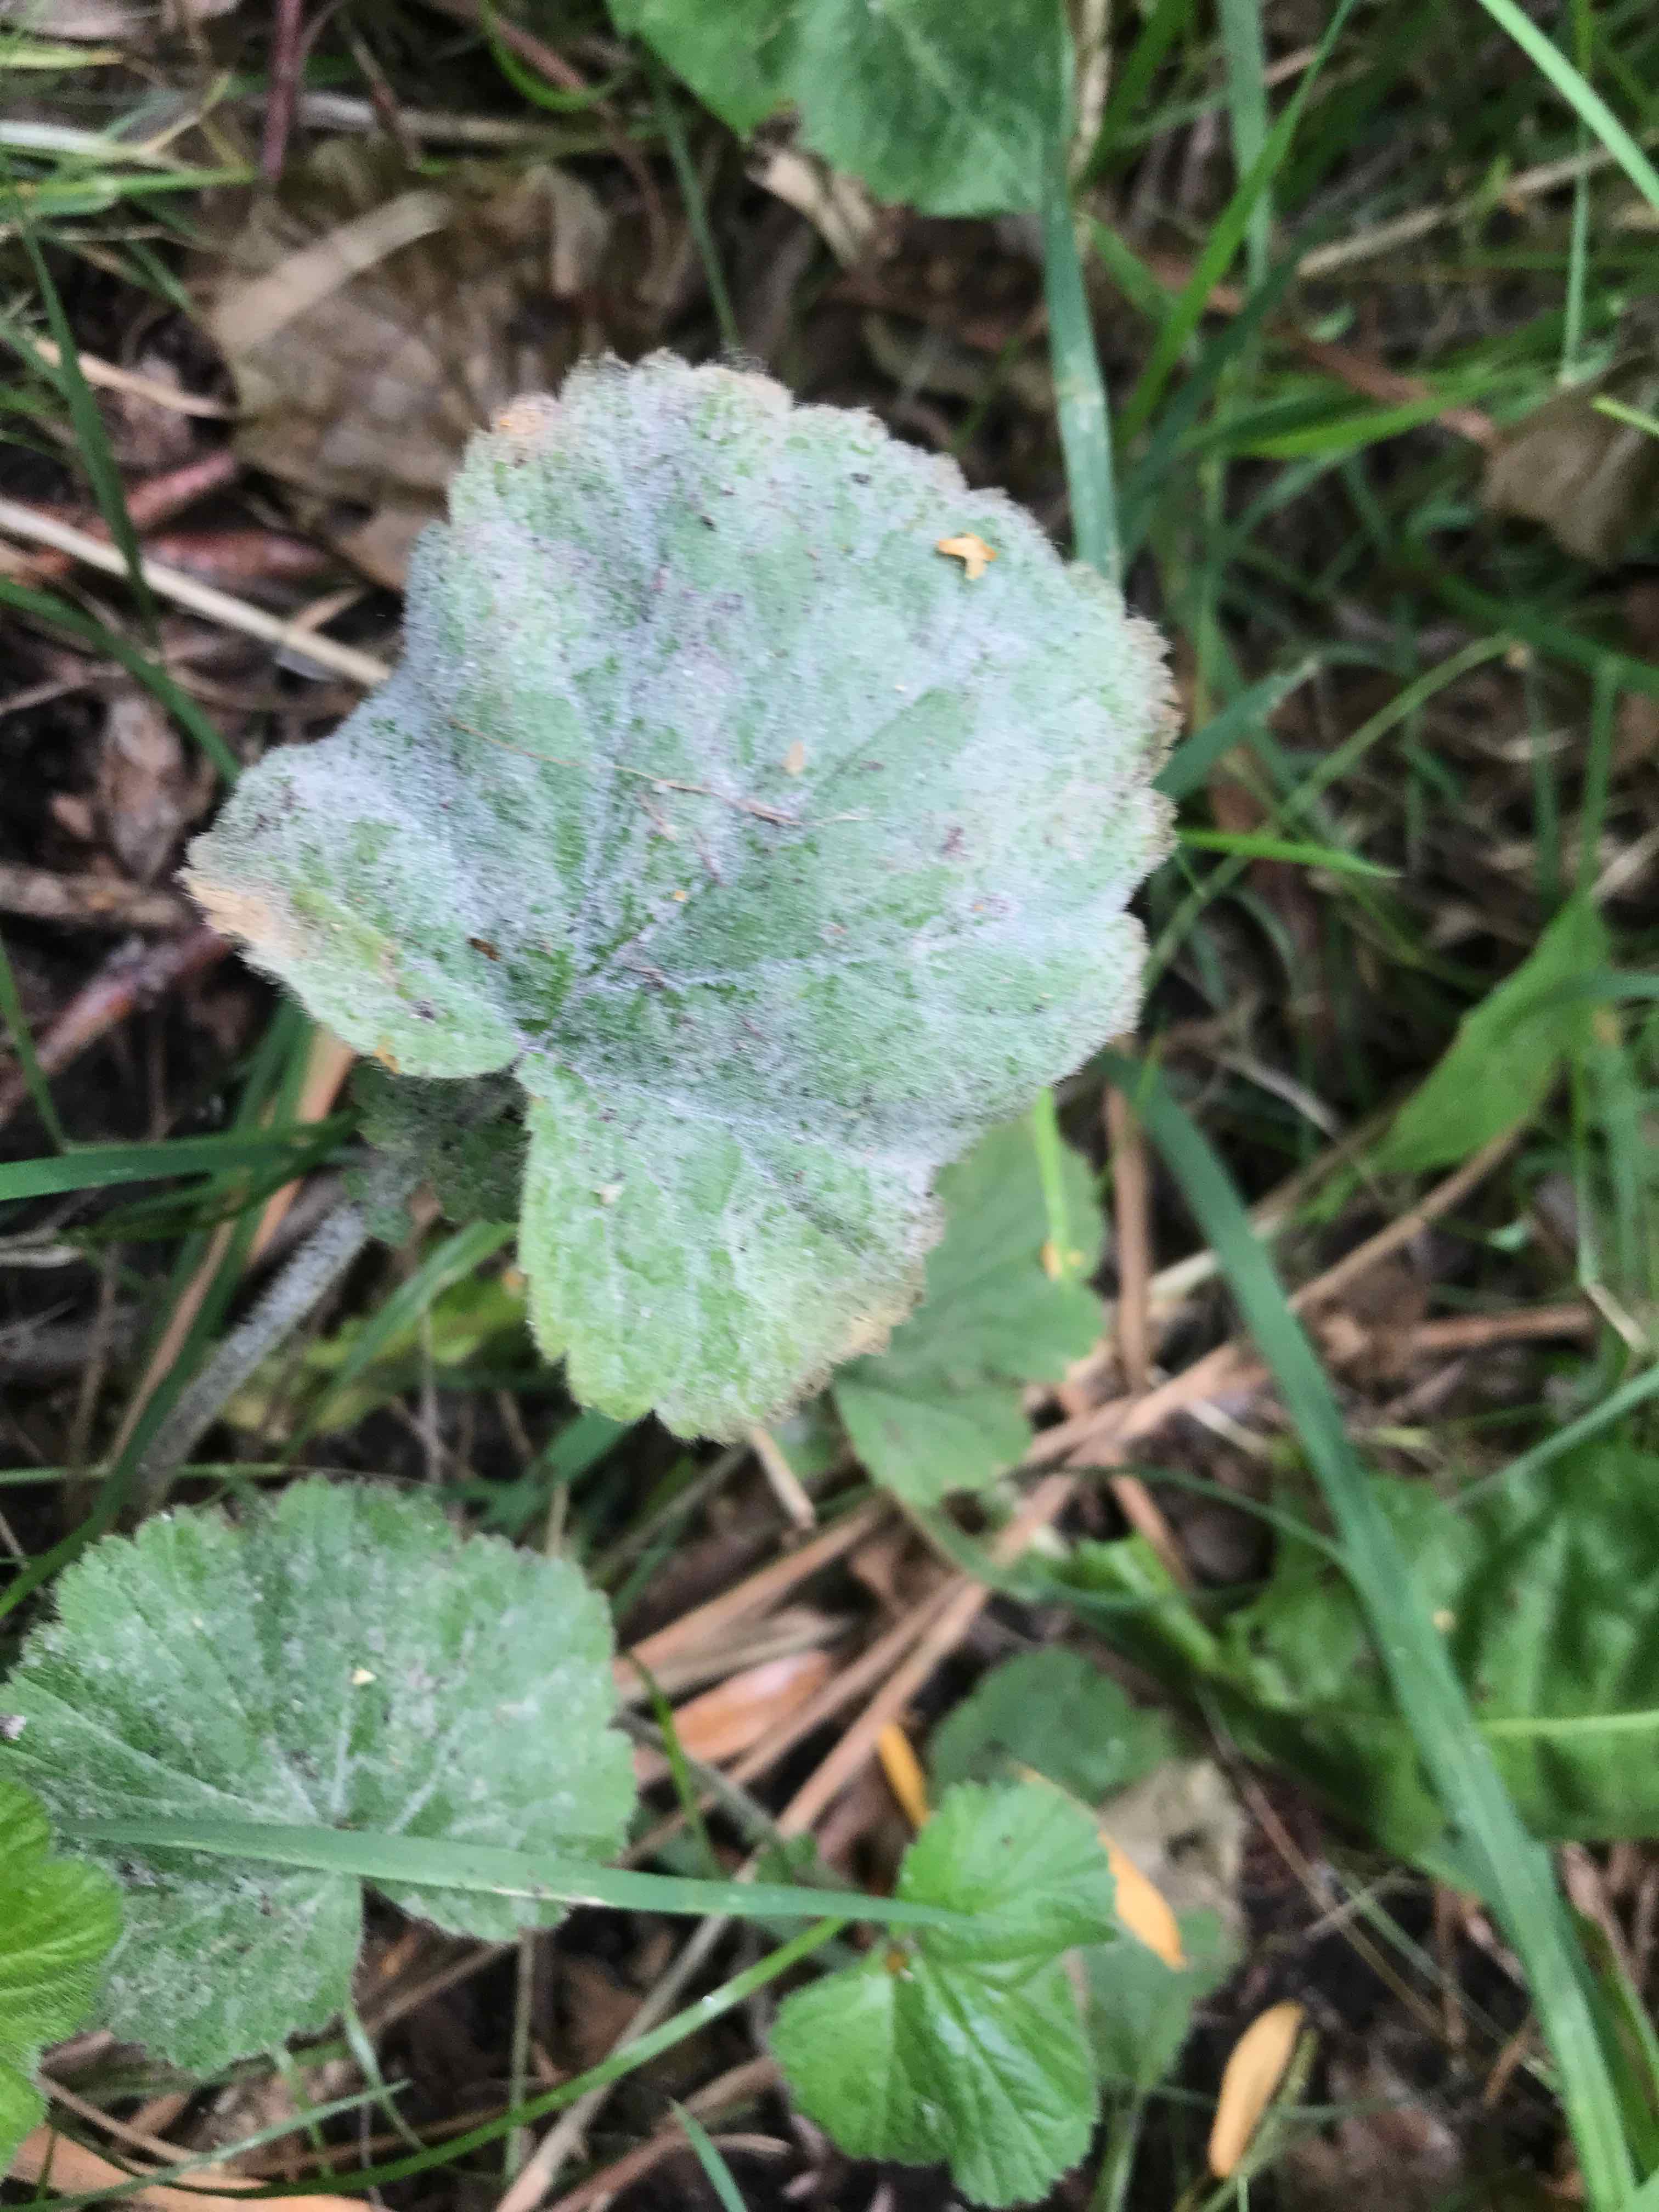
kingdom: Fungi
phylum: Ascomycota
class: Leotiomycetes
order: Helotiales
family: Erysiphaceae
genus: Podosphaera
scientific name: Podosphaera aphanis
